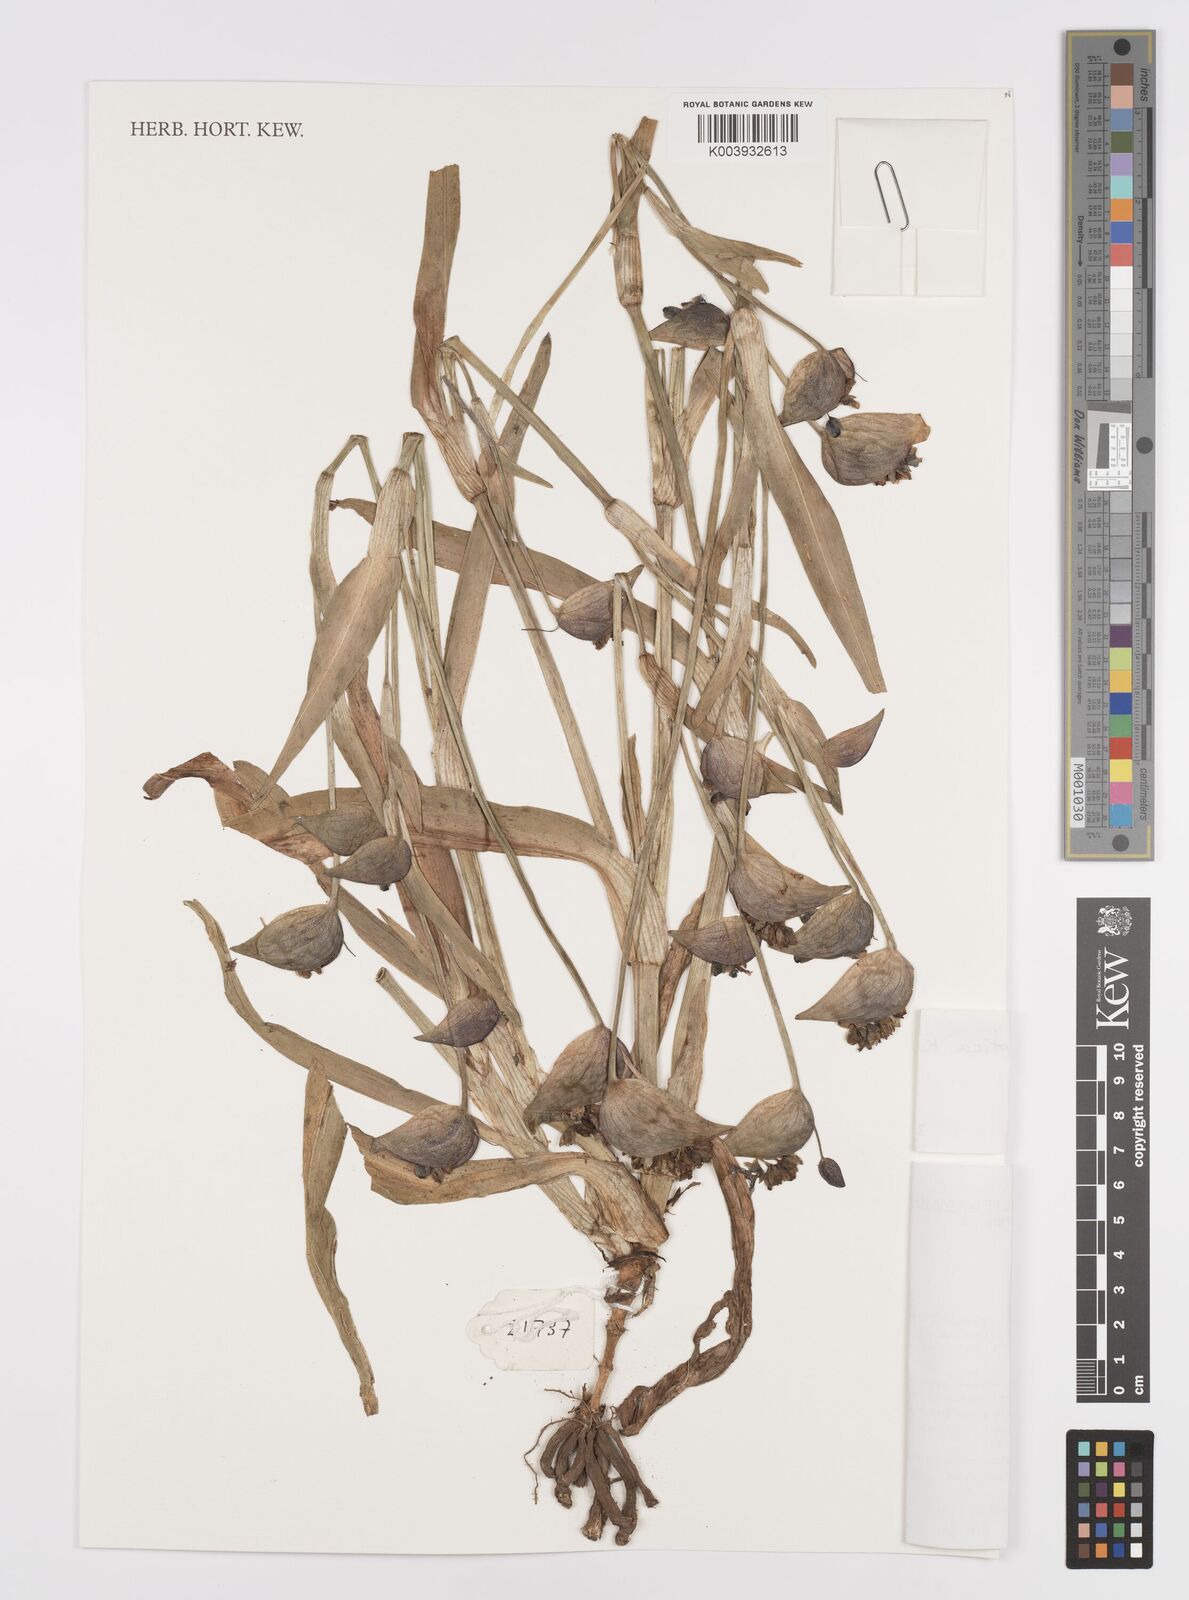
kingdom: Plantae
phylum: Tracheophyta
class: Liliopsida
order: Commelinales
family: Commelinaceae
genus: Commelina
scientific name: Commelina elliptica
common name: Peruvian spiderwort
